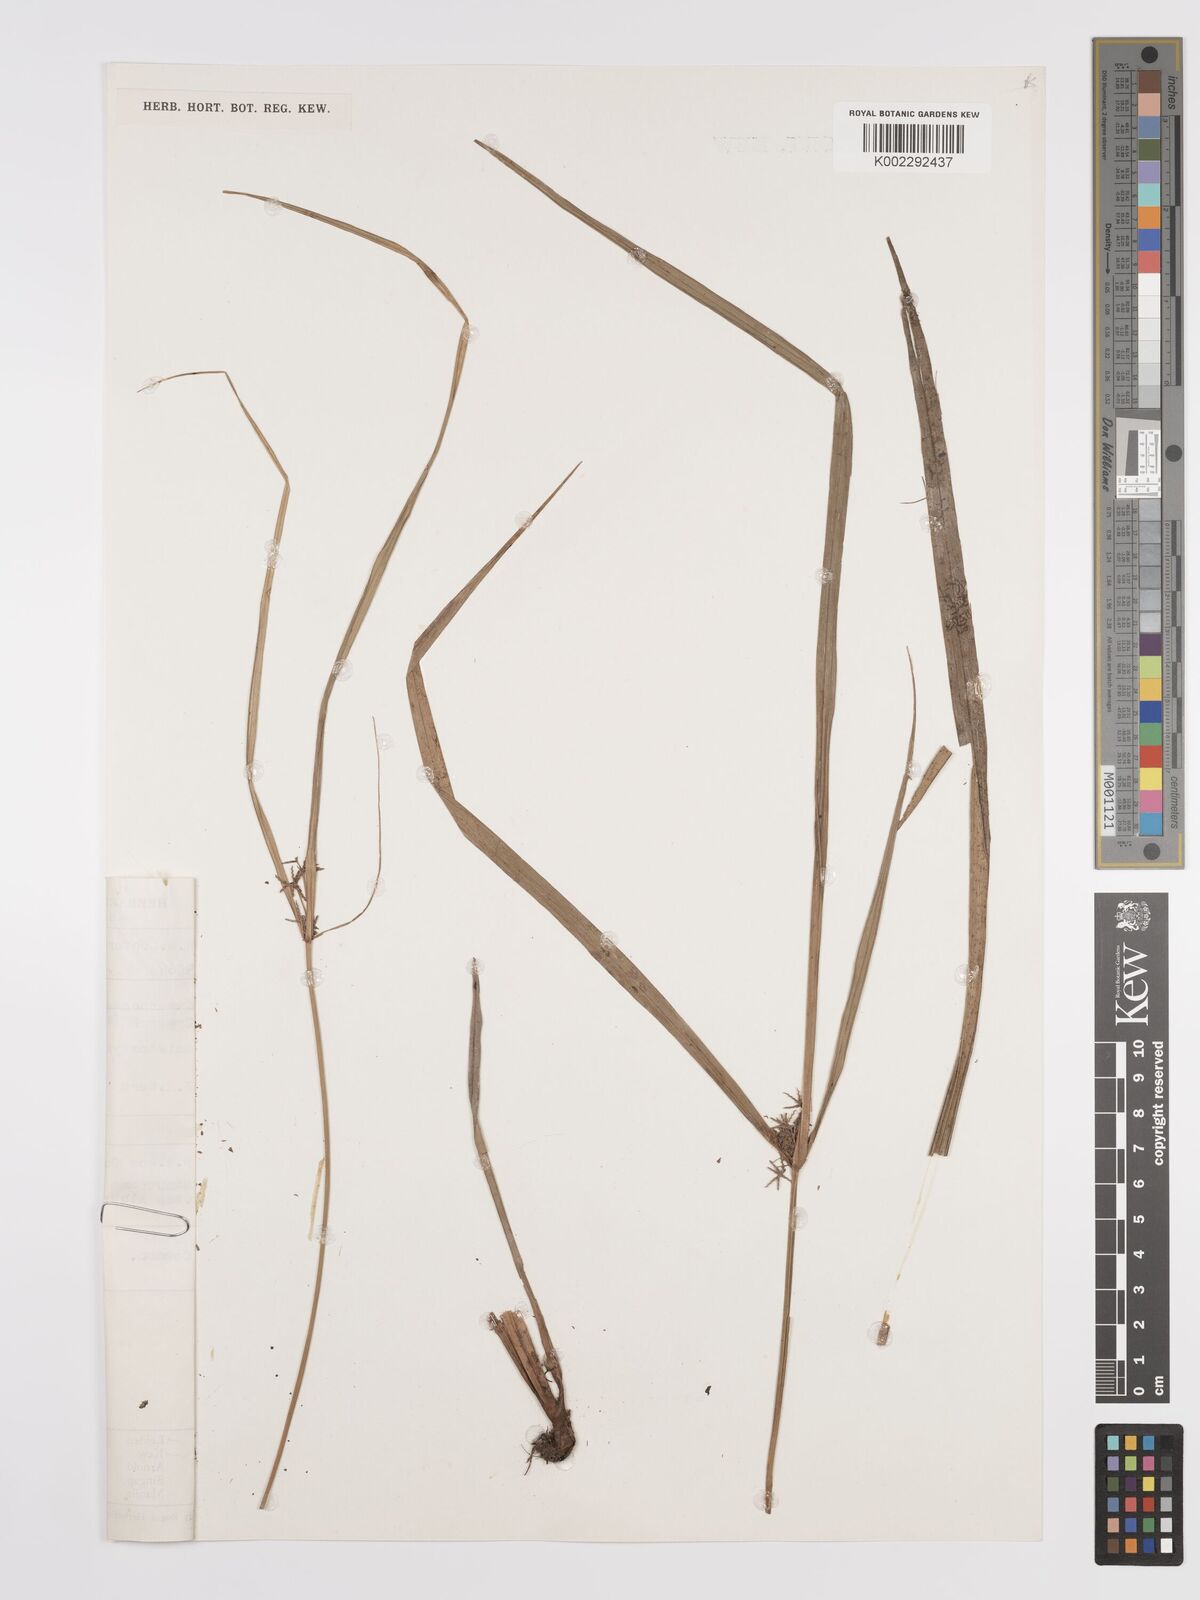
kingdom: Plantae
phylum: Tracheophyta
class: Liliopsida
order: Poales
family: Cyperaceae
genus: Cyperus
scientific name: Cyperus meistostylus
